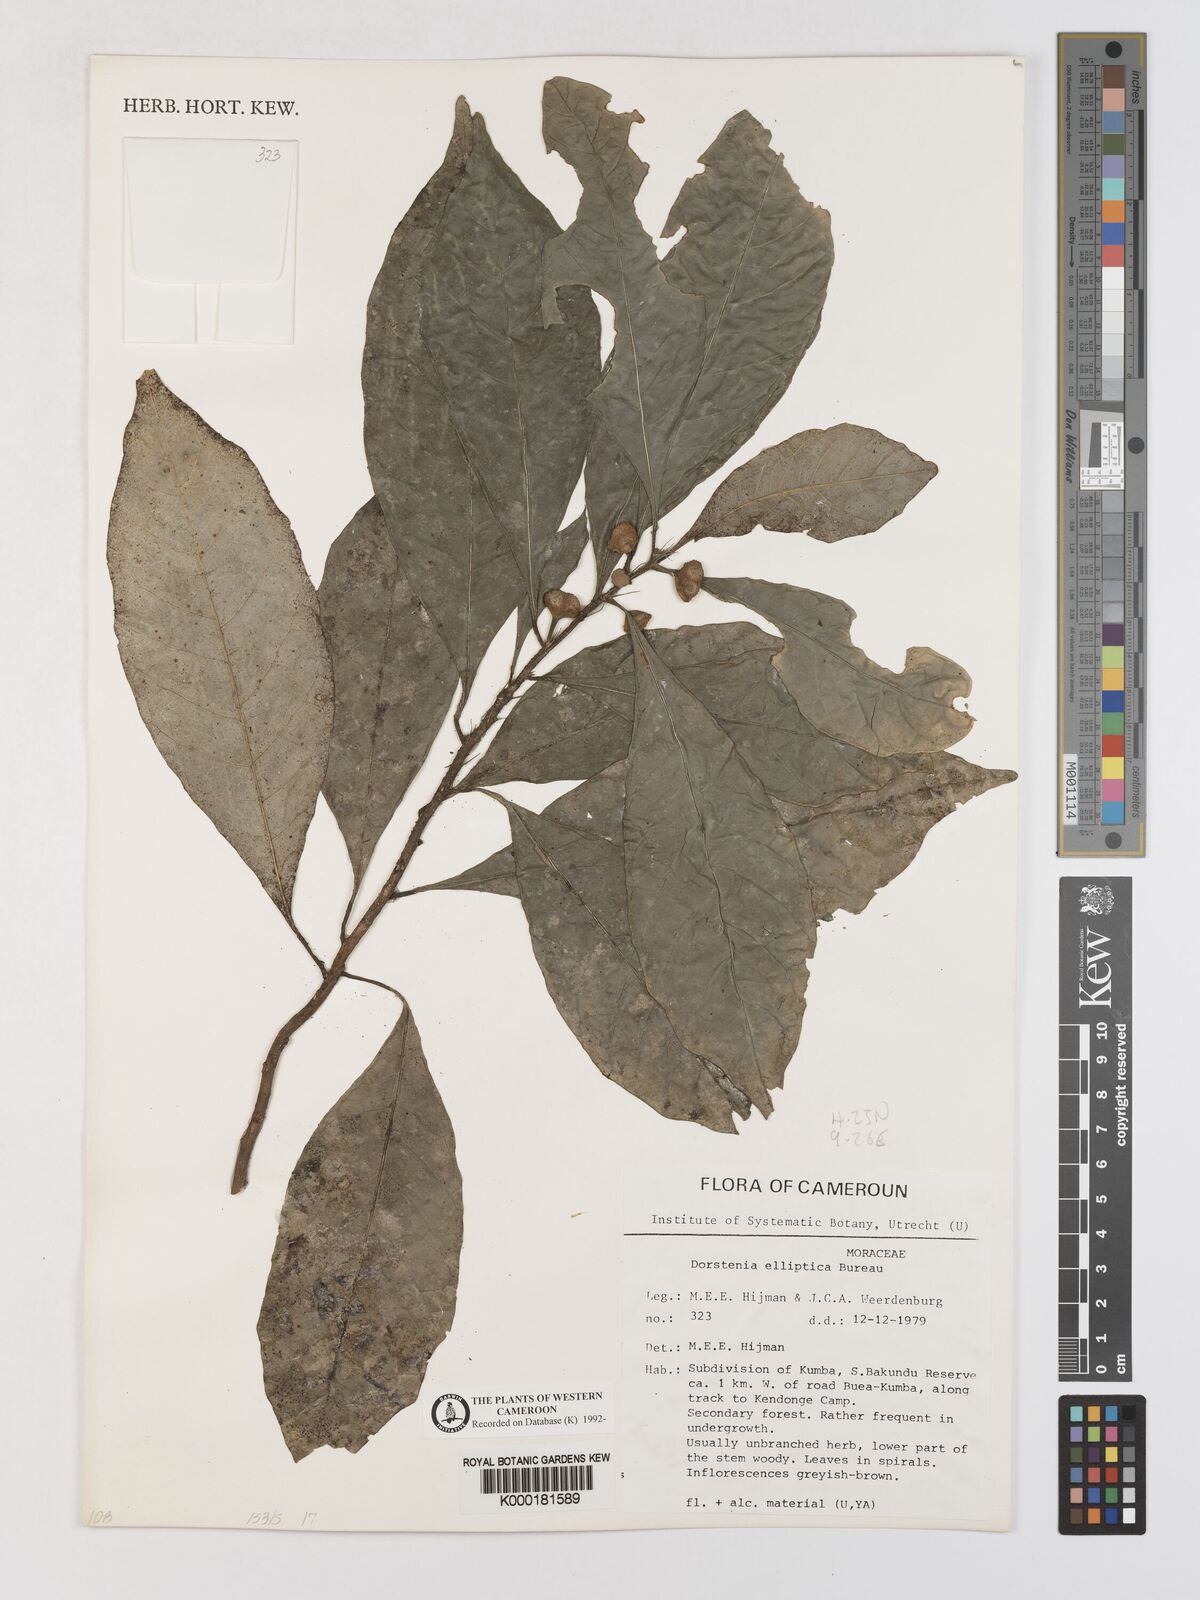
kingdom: Plantae
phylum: Tracheophyta
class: Magnoliopsida
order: Rosales
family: Moraceae
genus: Dorstenia
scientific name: Dorstenia elliptica
